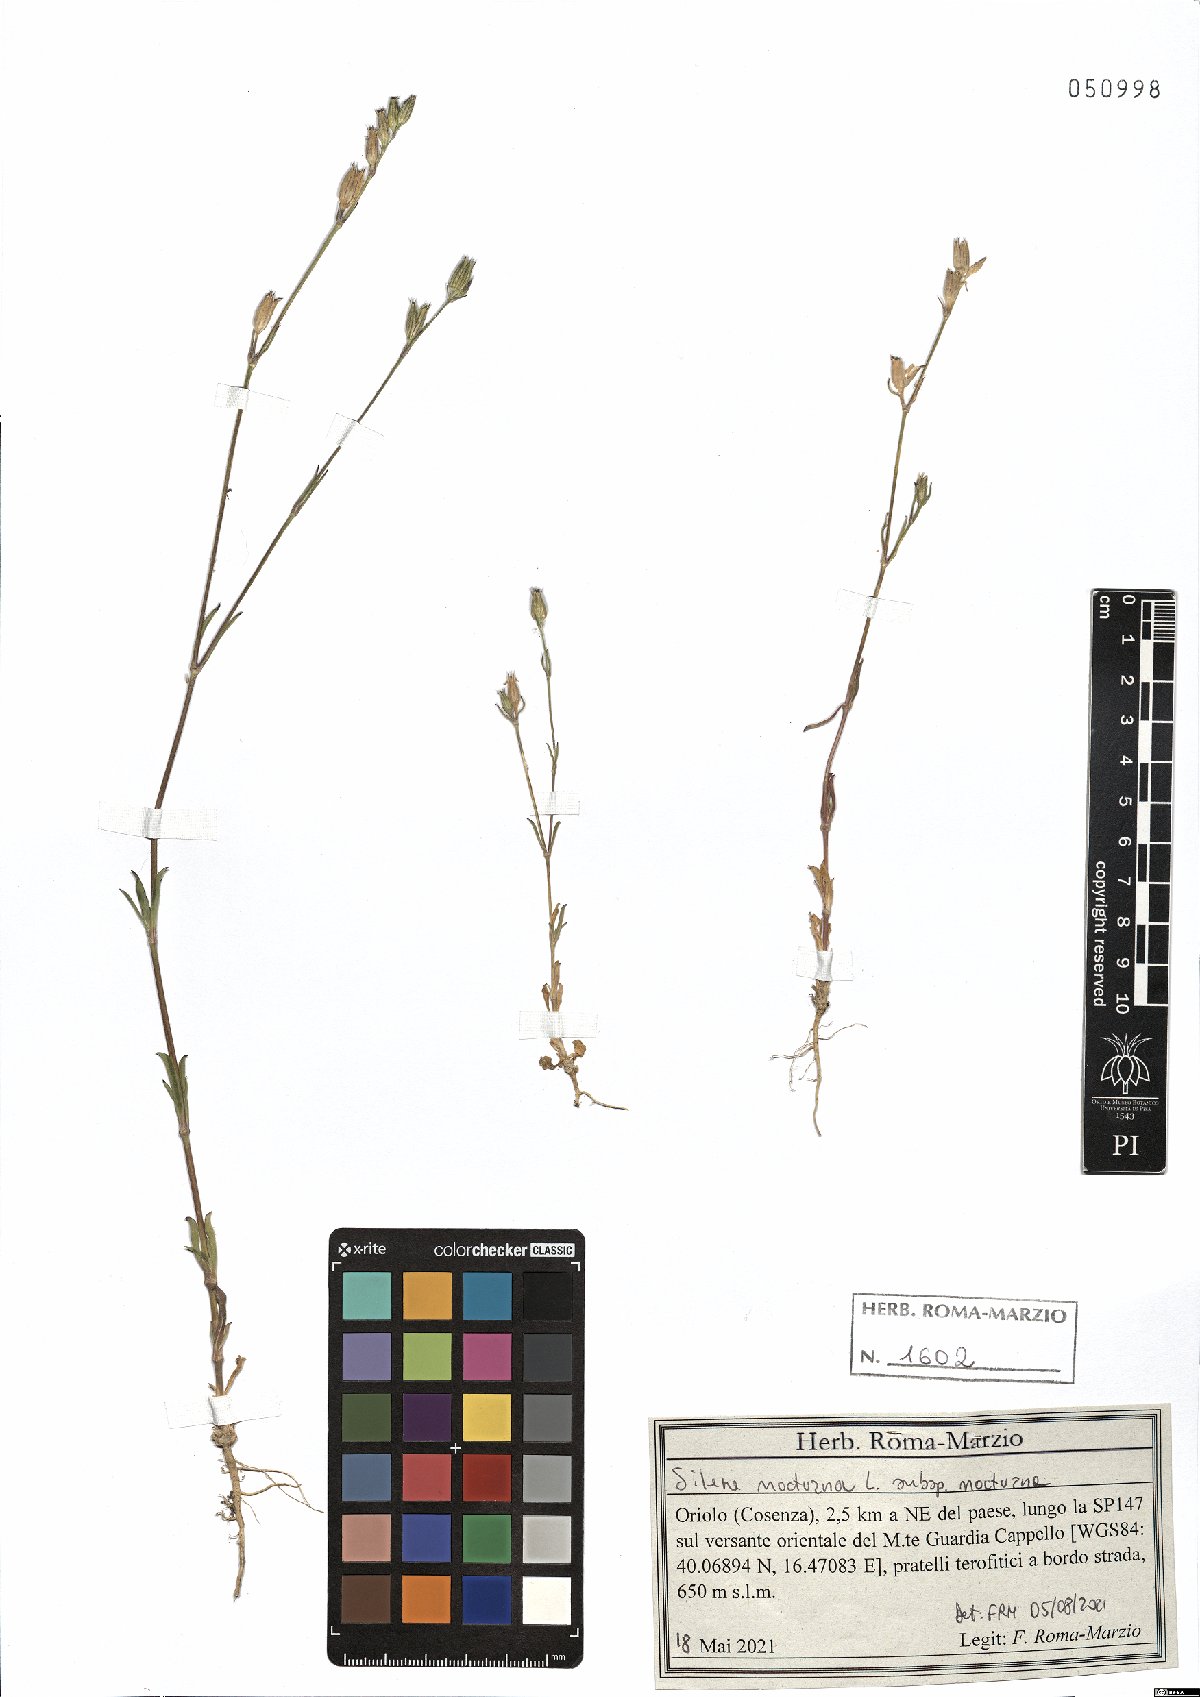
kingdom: Plantae
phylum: Tracheophyta
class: Magnoliopsida
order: Caryophyllales
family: Caryophyllaceae
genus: Silene
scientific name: Silene nocturna
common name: Mediterranean catchfly
